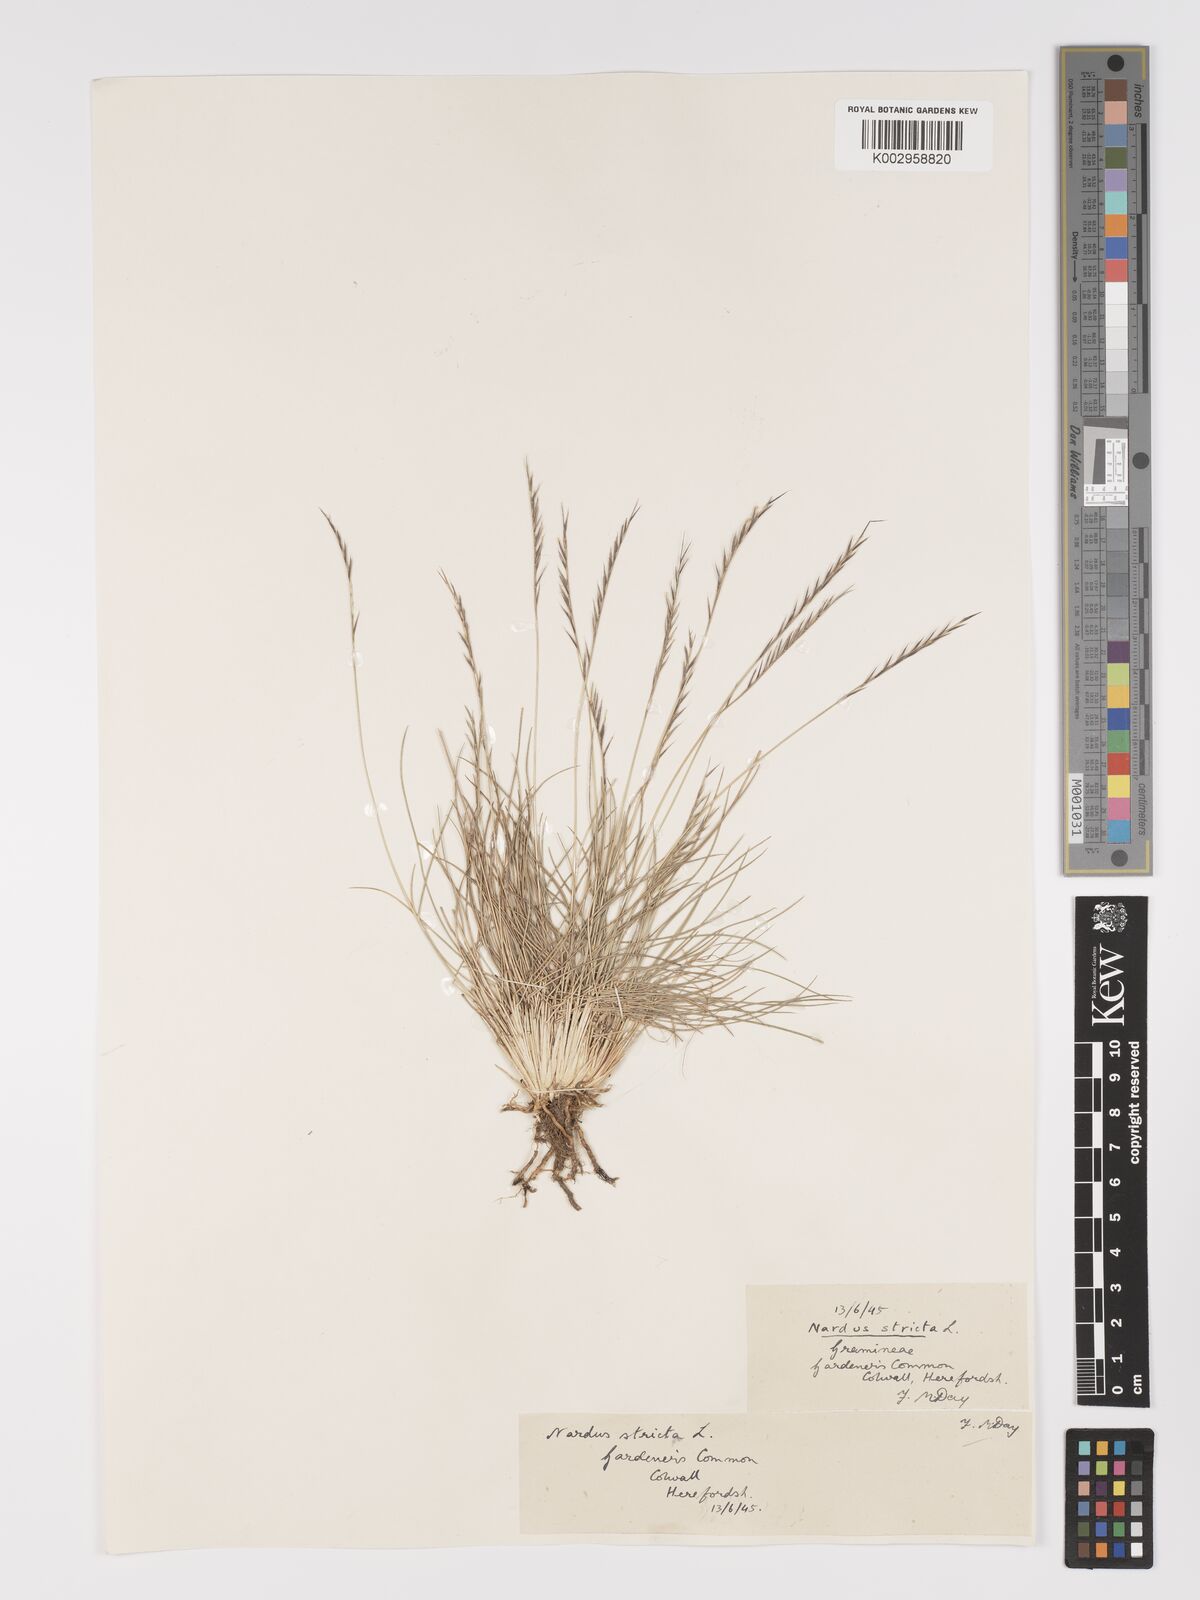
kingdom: Plantae
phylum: Tracheophyta
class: Liliopsida
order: Poales
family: Poaceae
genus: Nardus
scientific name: Nardus stricta
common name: Mat-grass
